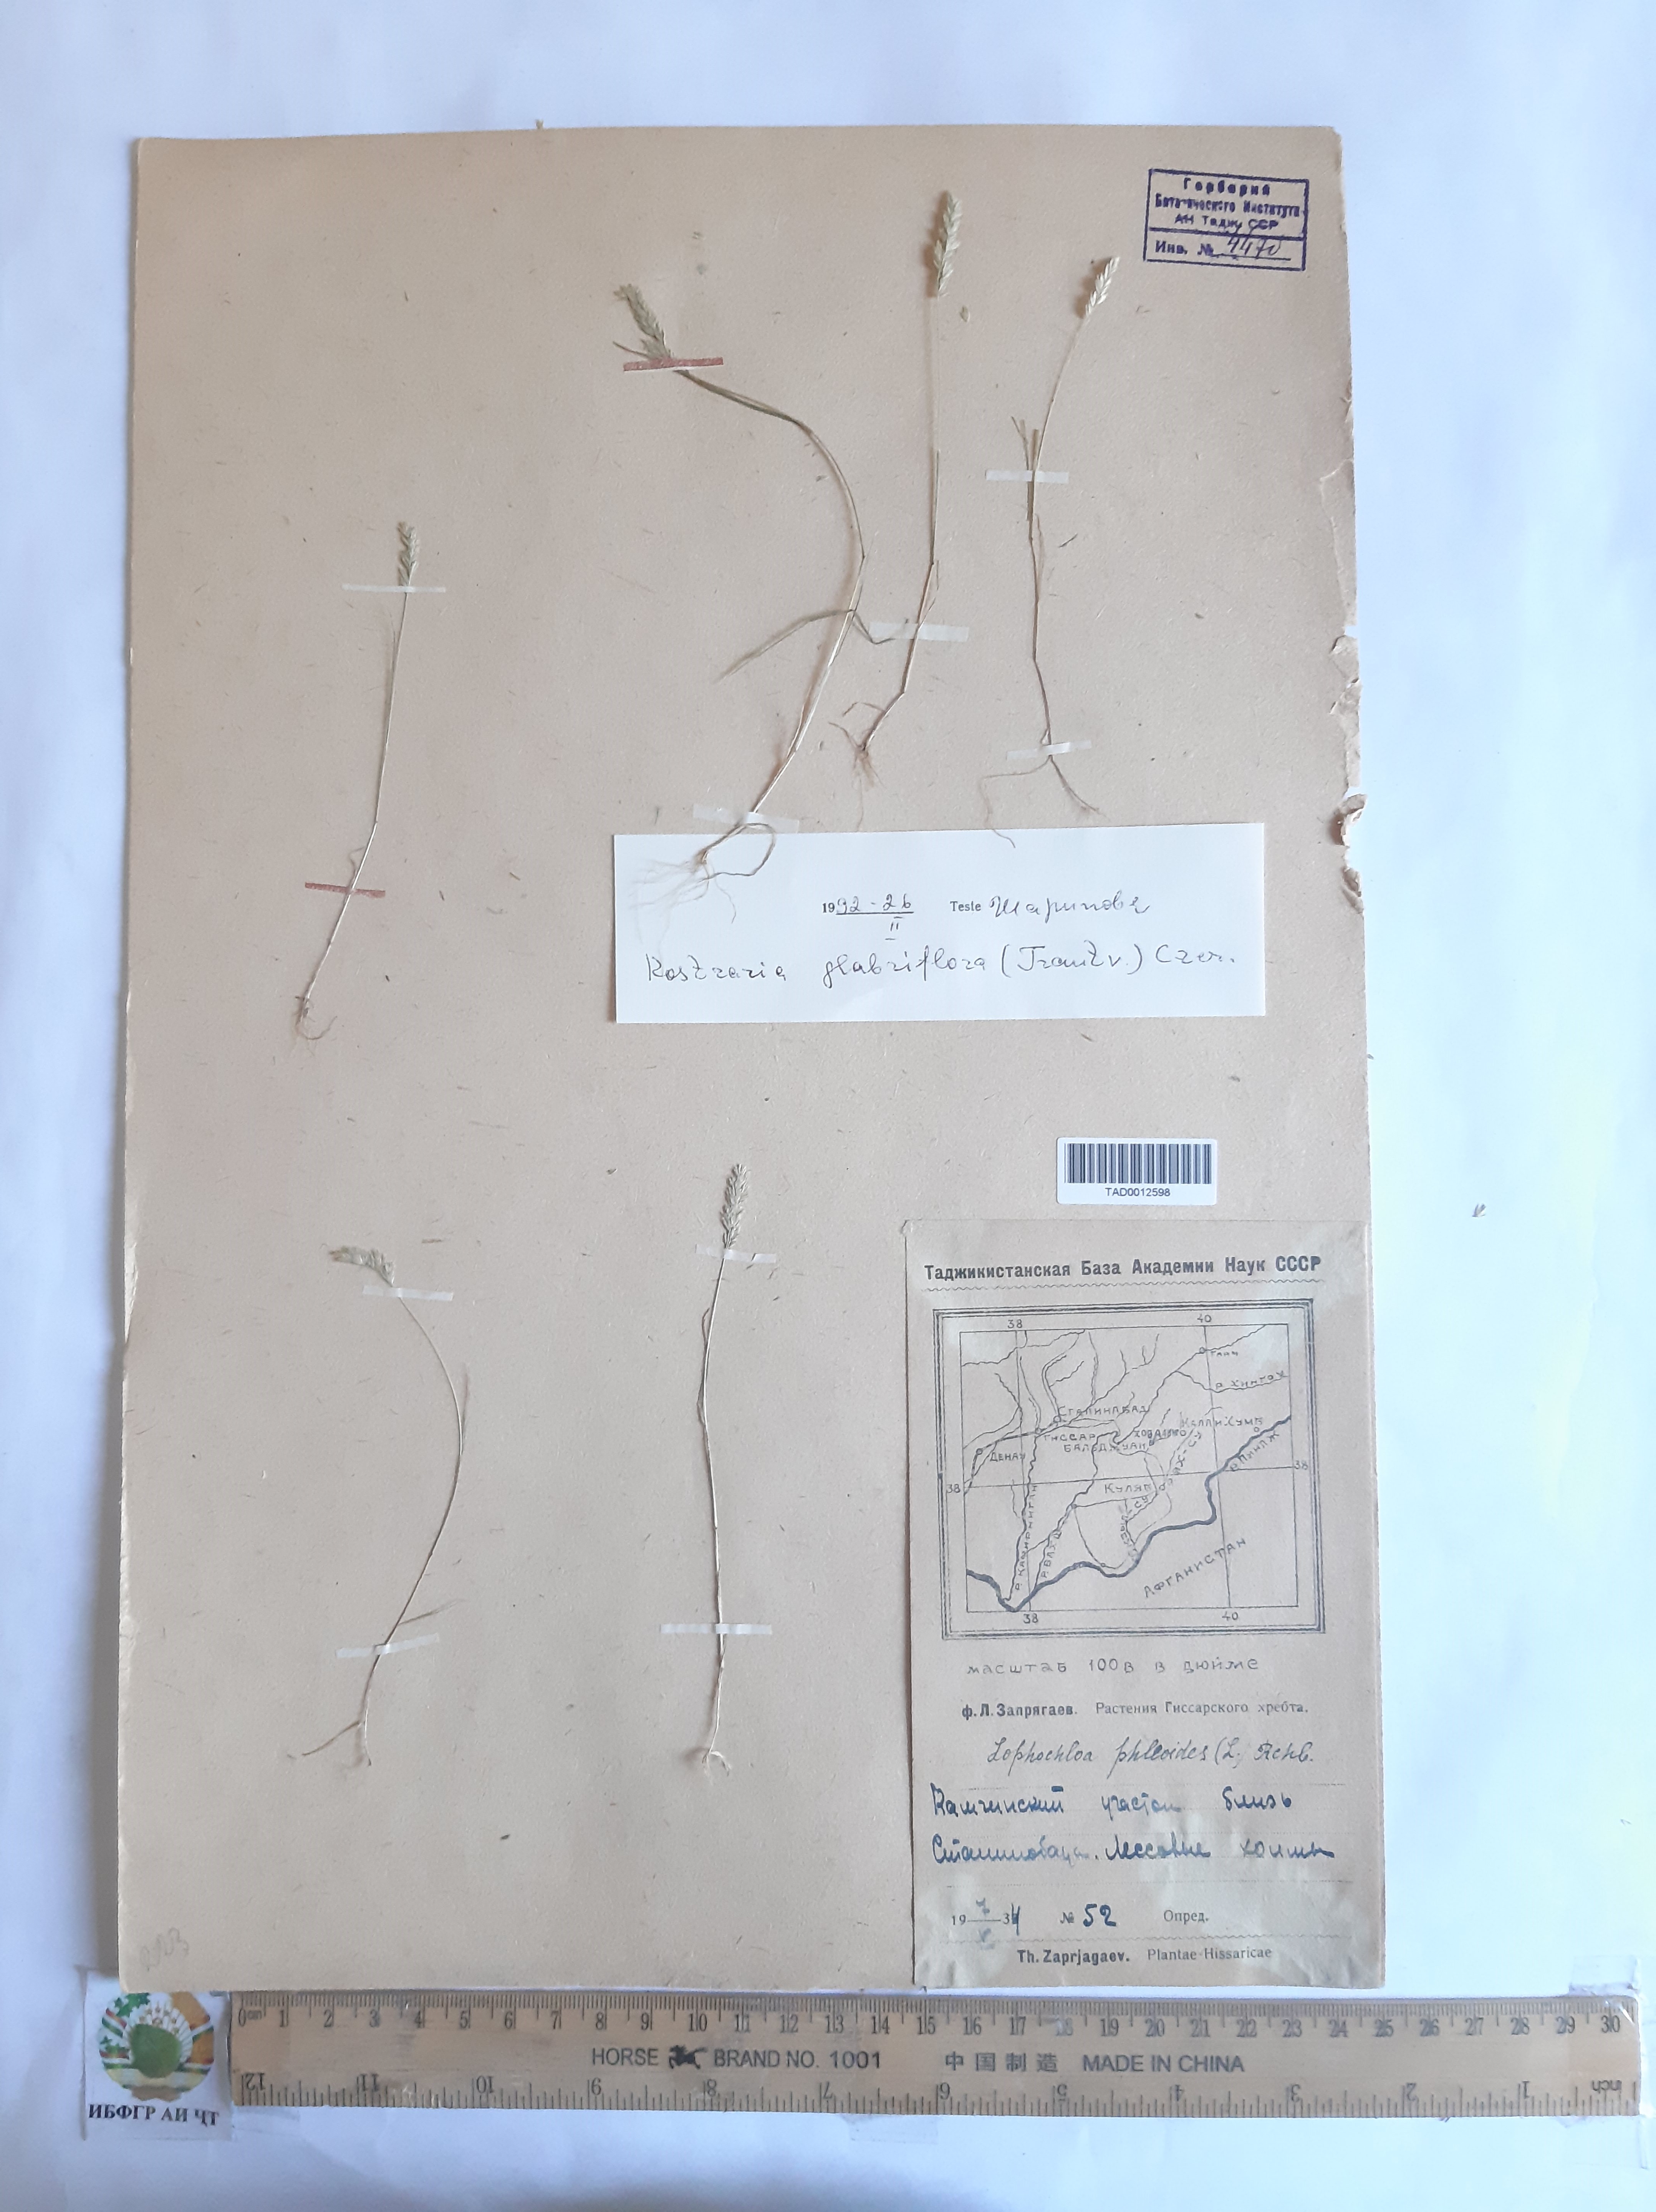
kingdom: Plantae
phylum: Tracheophyta
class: Liliopsida
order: Poales
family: Poaceae
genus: Rostraria
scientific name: Rostraria cristata
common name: Mediterranean hair-grass
